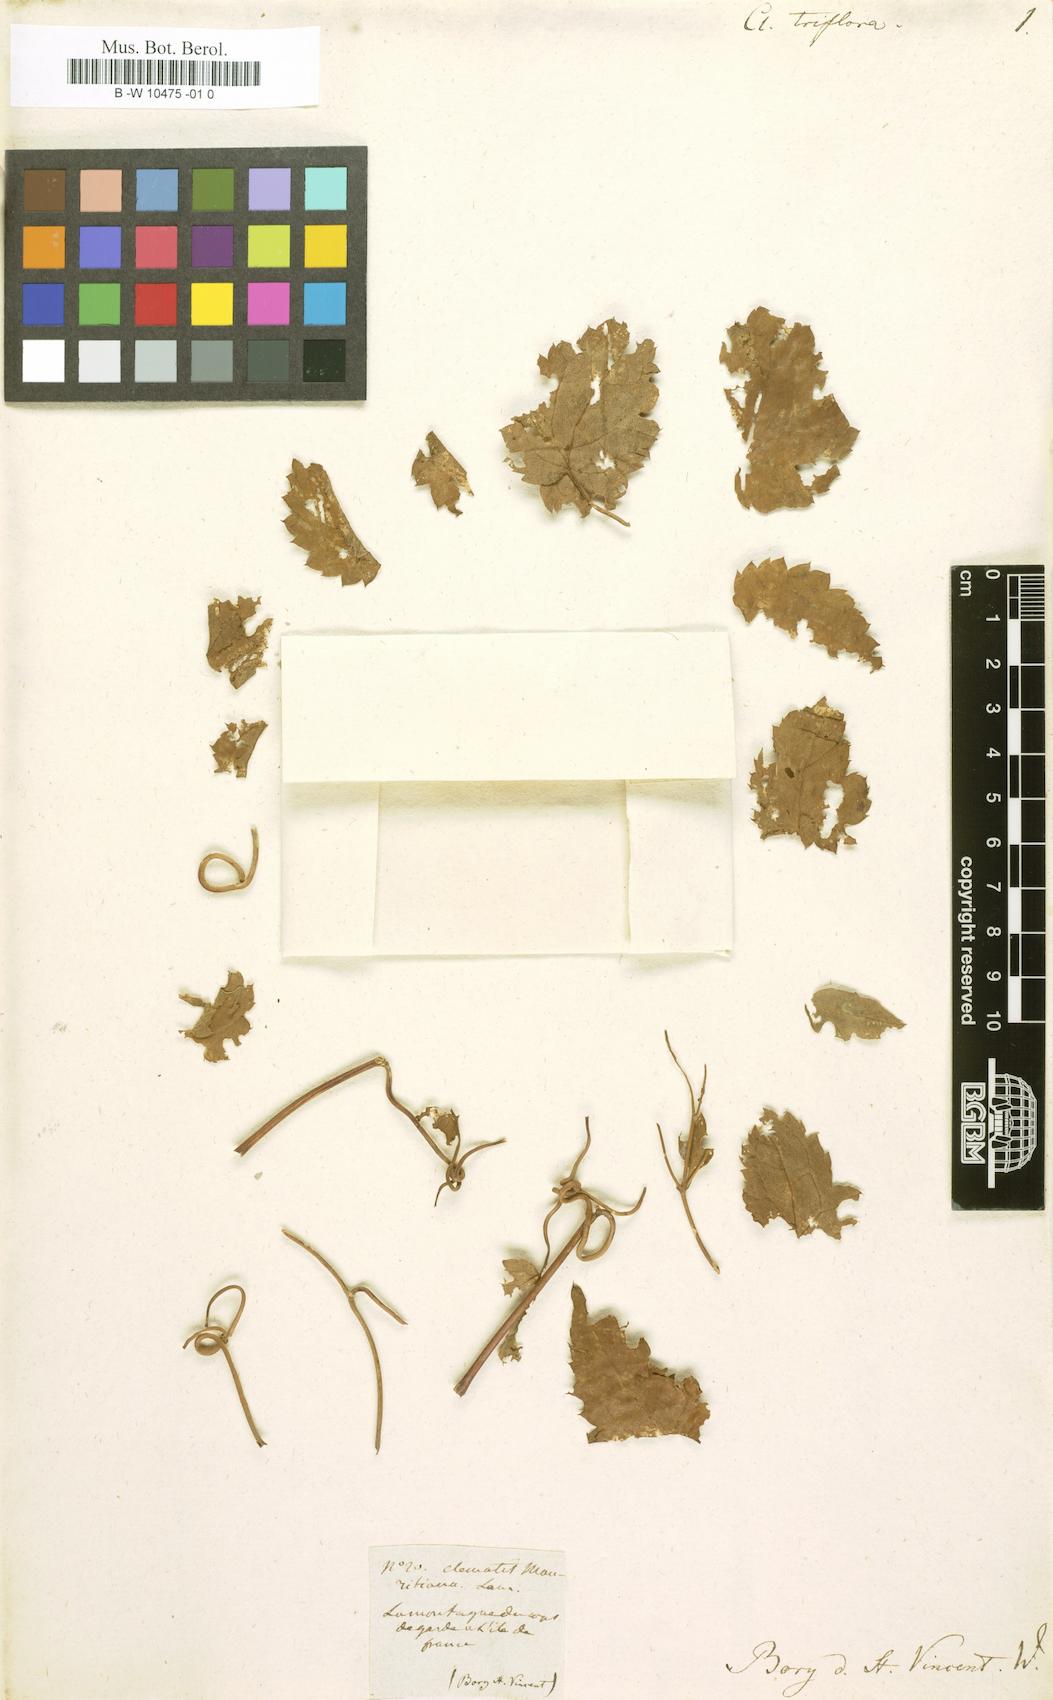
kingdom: Plantae
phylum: Tracheophyta
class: Magnoliopsida
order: Ranunculales
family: Ranunculaceae
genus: Clematis
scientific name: Clematis mauritiana
